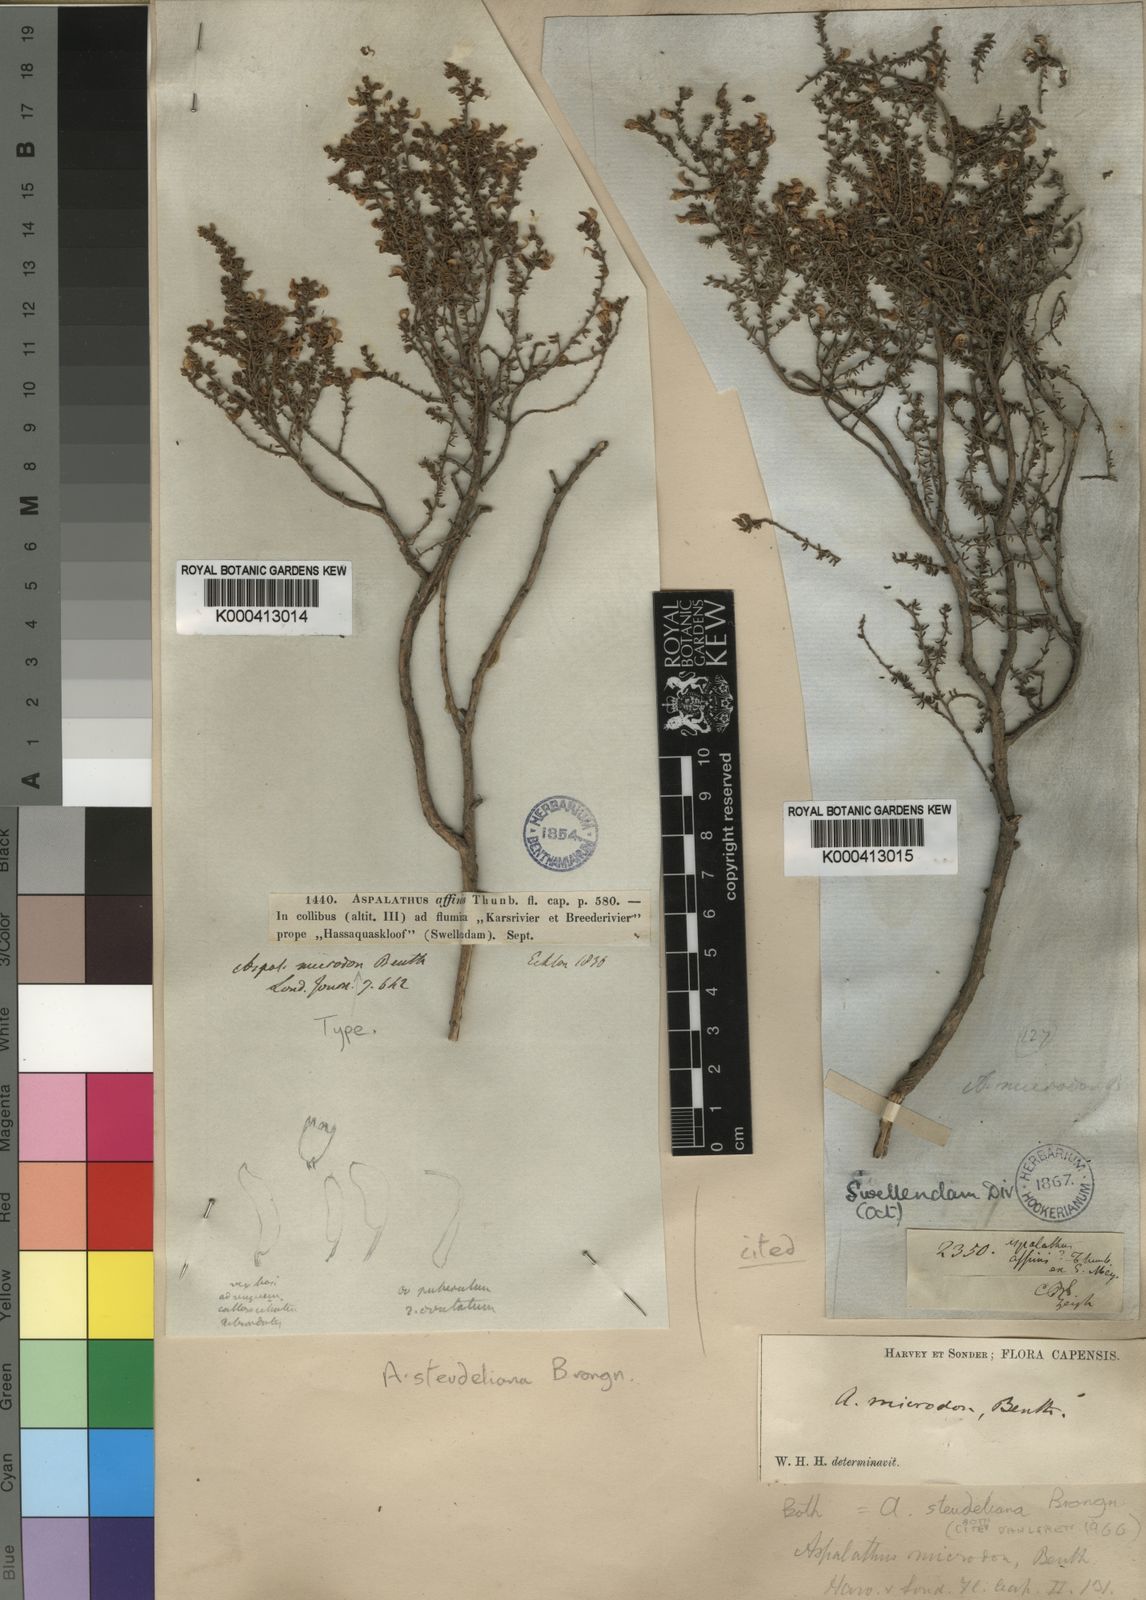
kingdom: Plantae
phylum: Tracheophyta
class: Magnoliopsida
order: Fabales
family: Fabaceae
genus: Aspalathus
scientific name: Aspalathus mundiana
